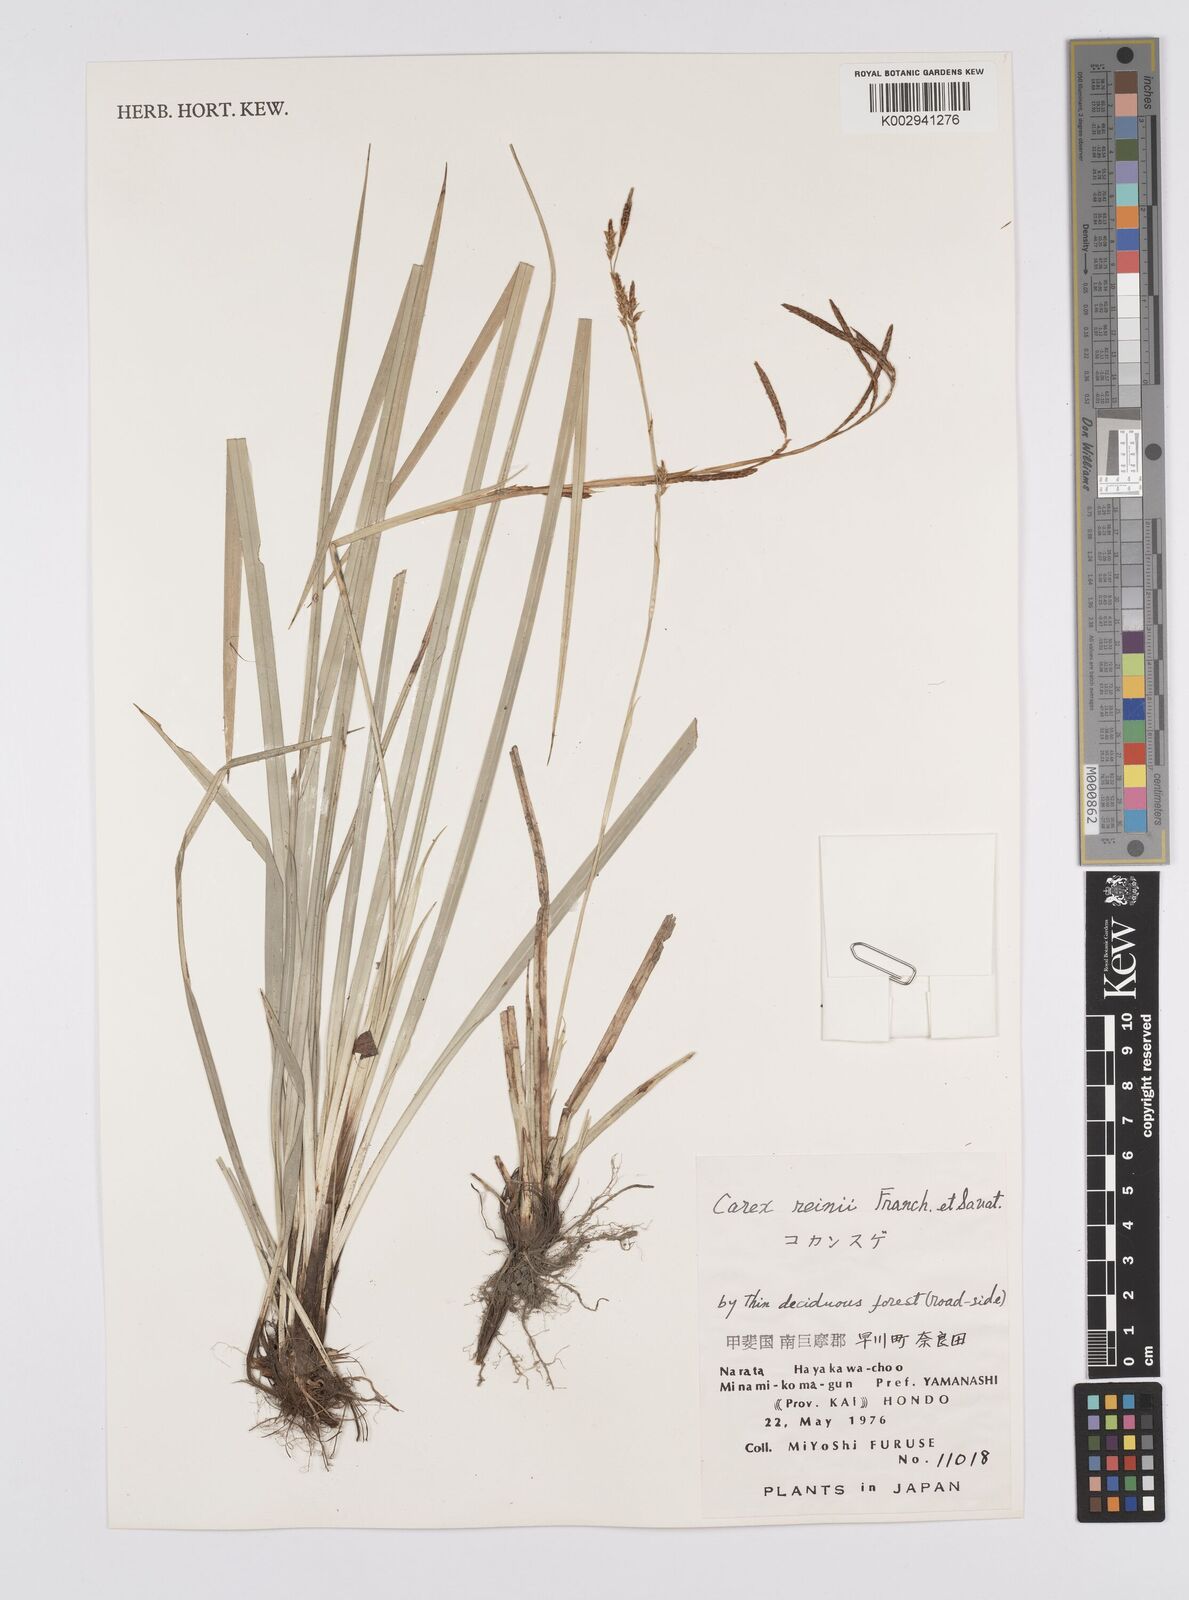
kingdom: Plantae
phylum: Tracheophyta
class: Liliopsida
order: Poales
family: Cyperaceae
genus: Carex
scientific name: Carex reinii
